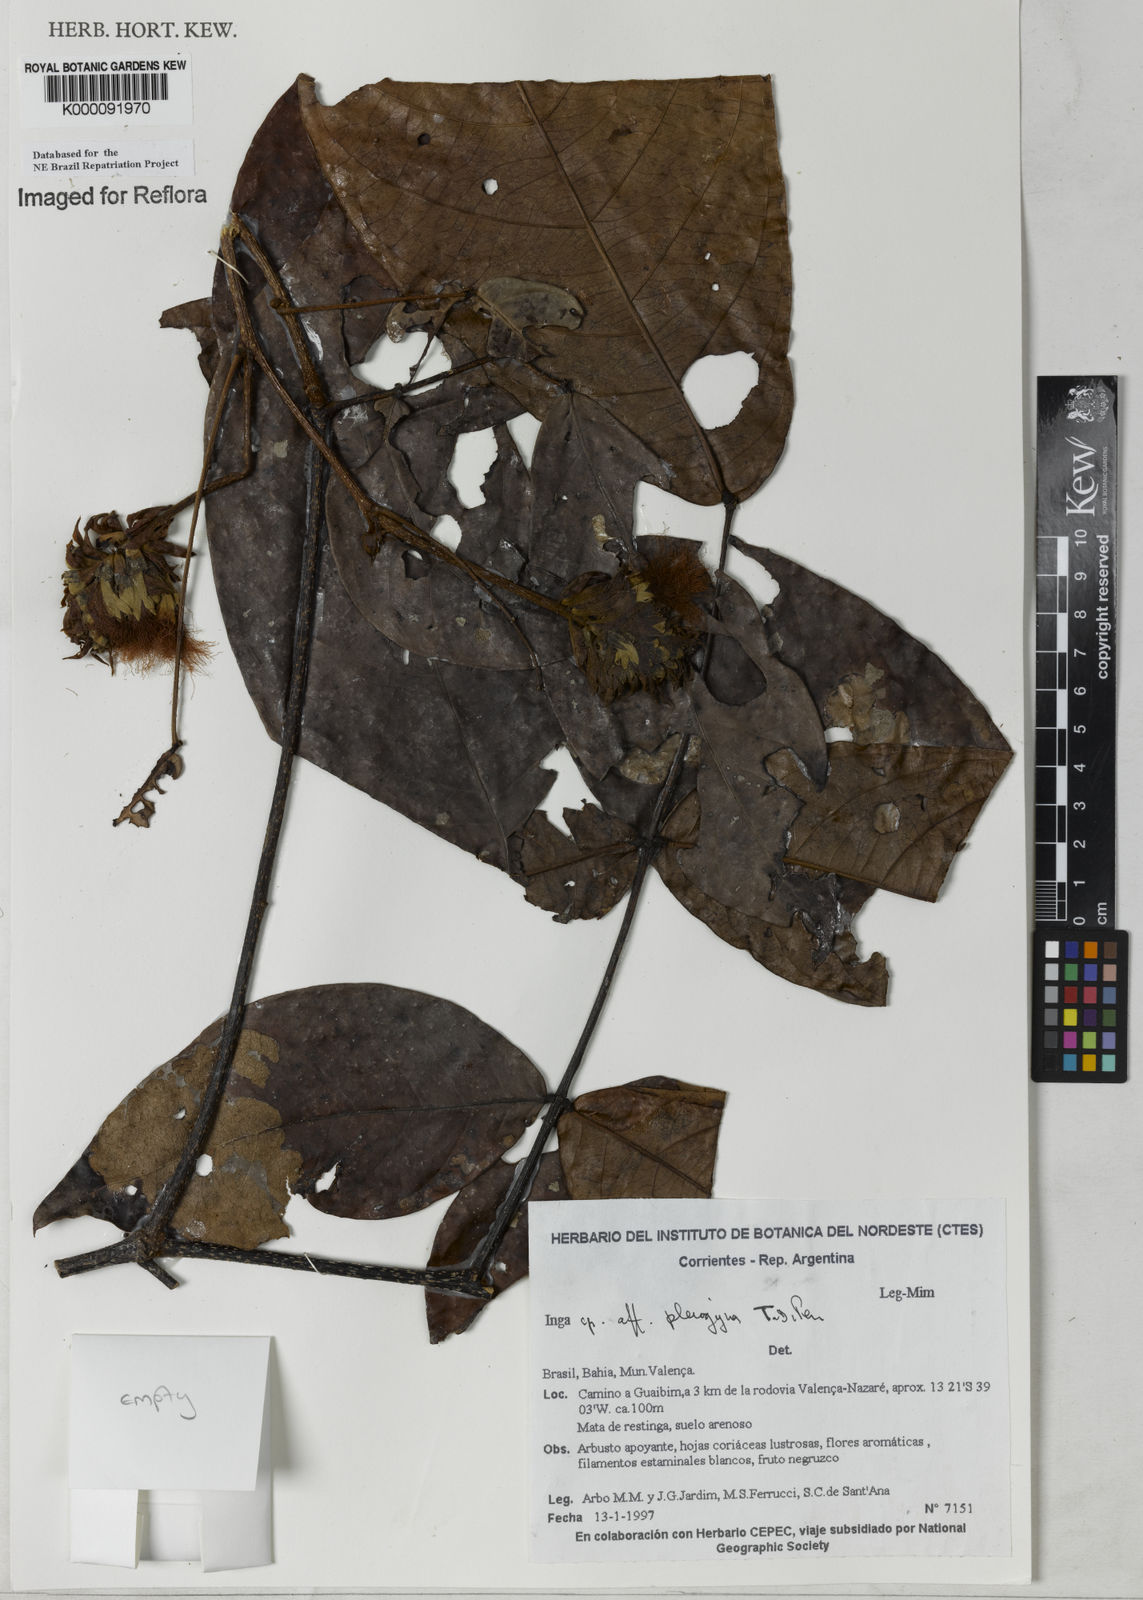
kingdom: Plantae
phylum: Tracheophyta
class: Magnoliopsida
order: Fabales
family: Fabaceae
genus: Inga
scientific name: Inga pleiogyna
